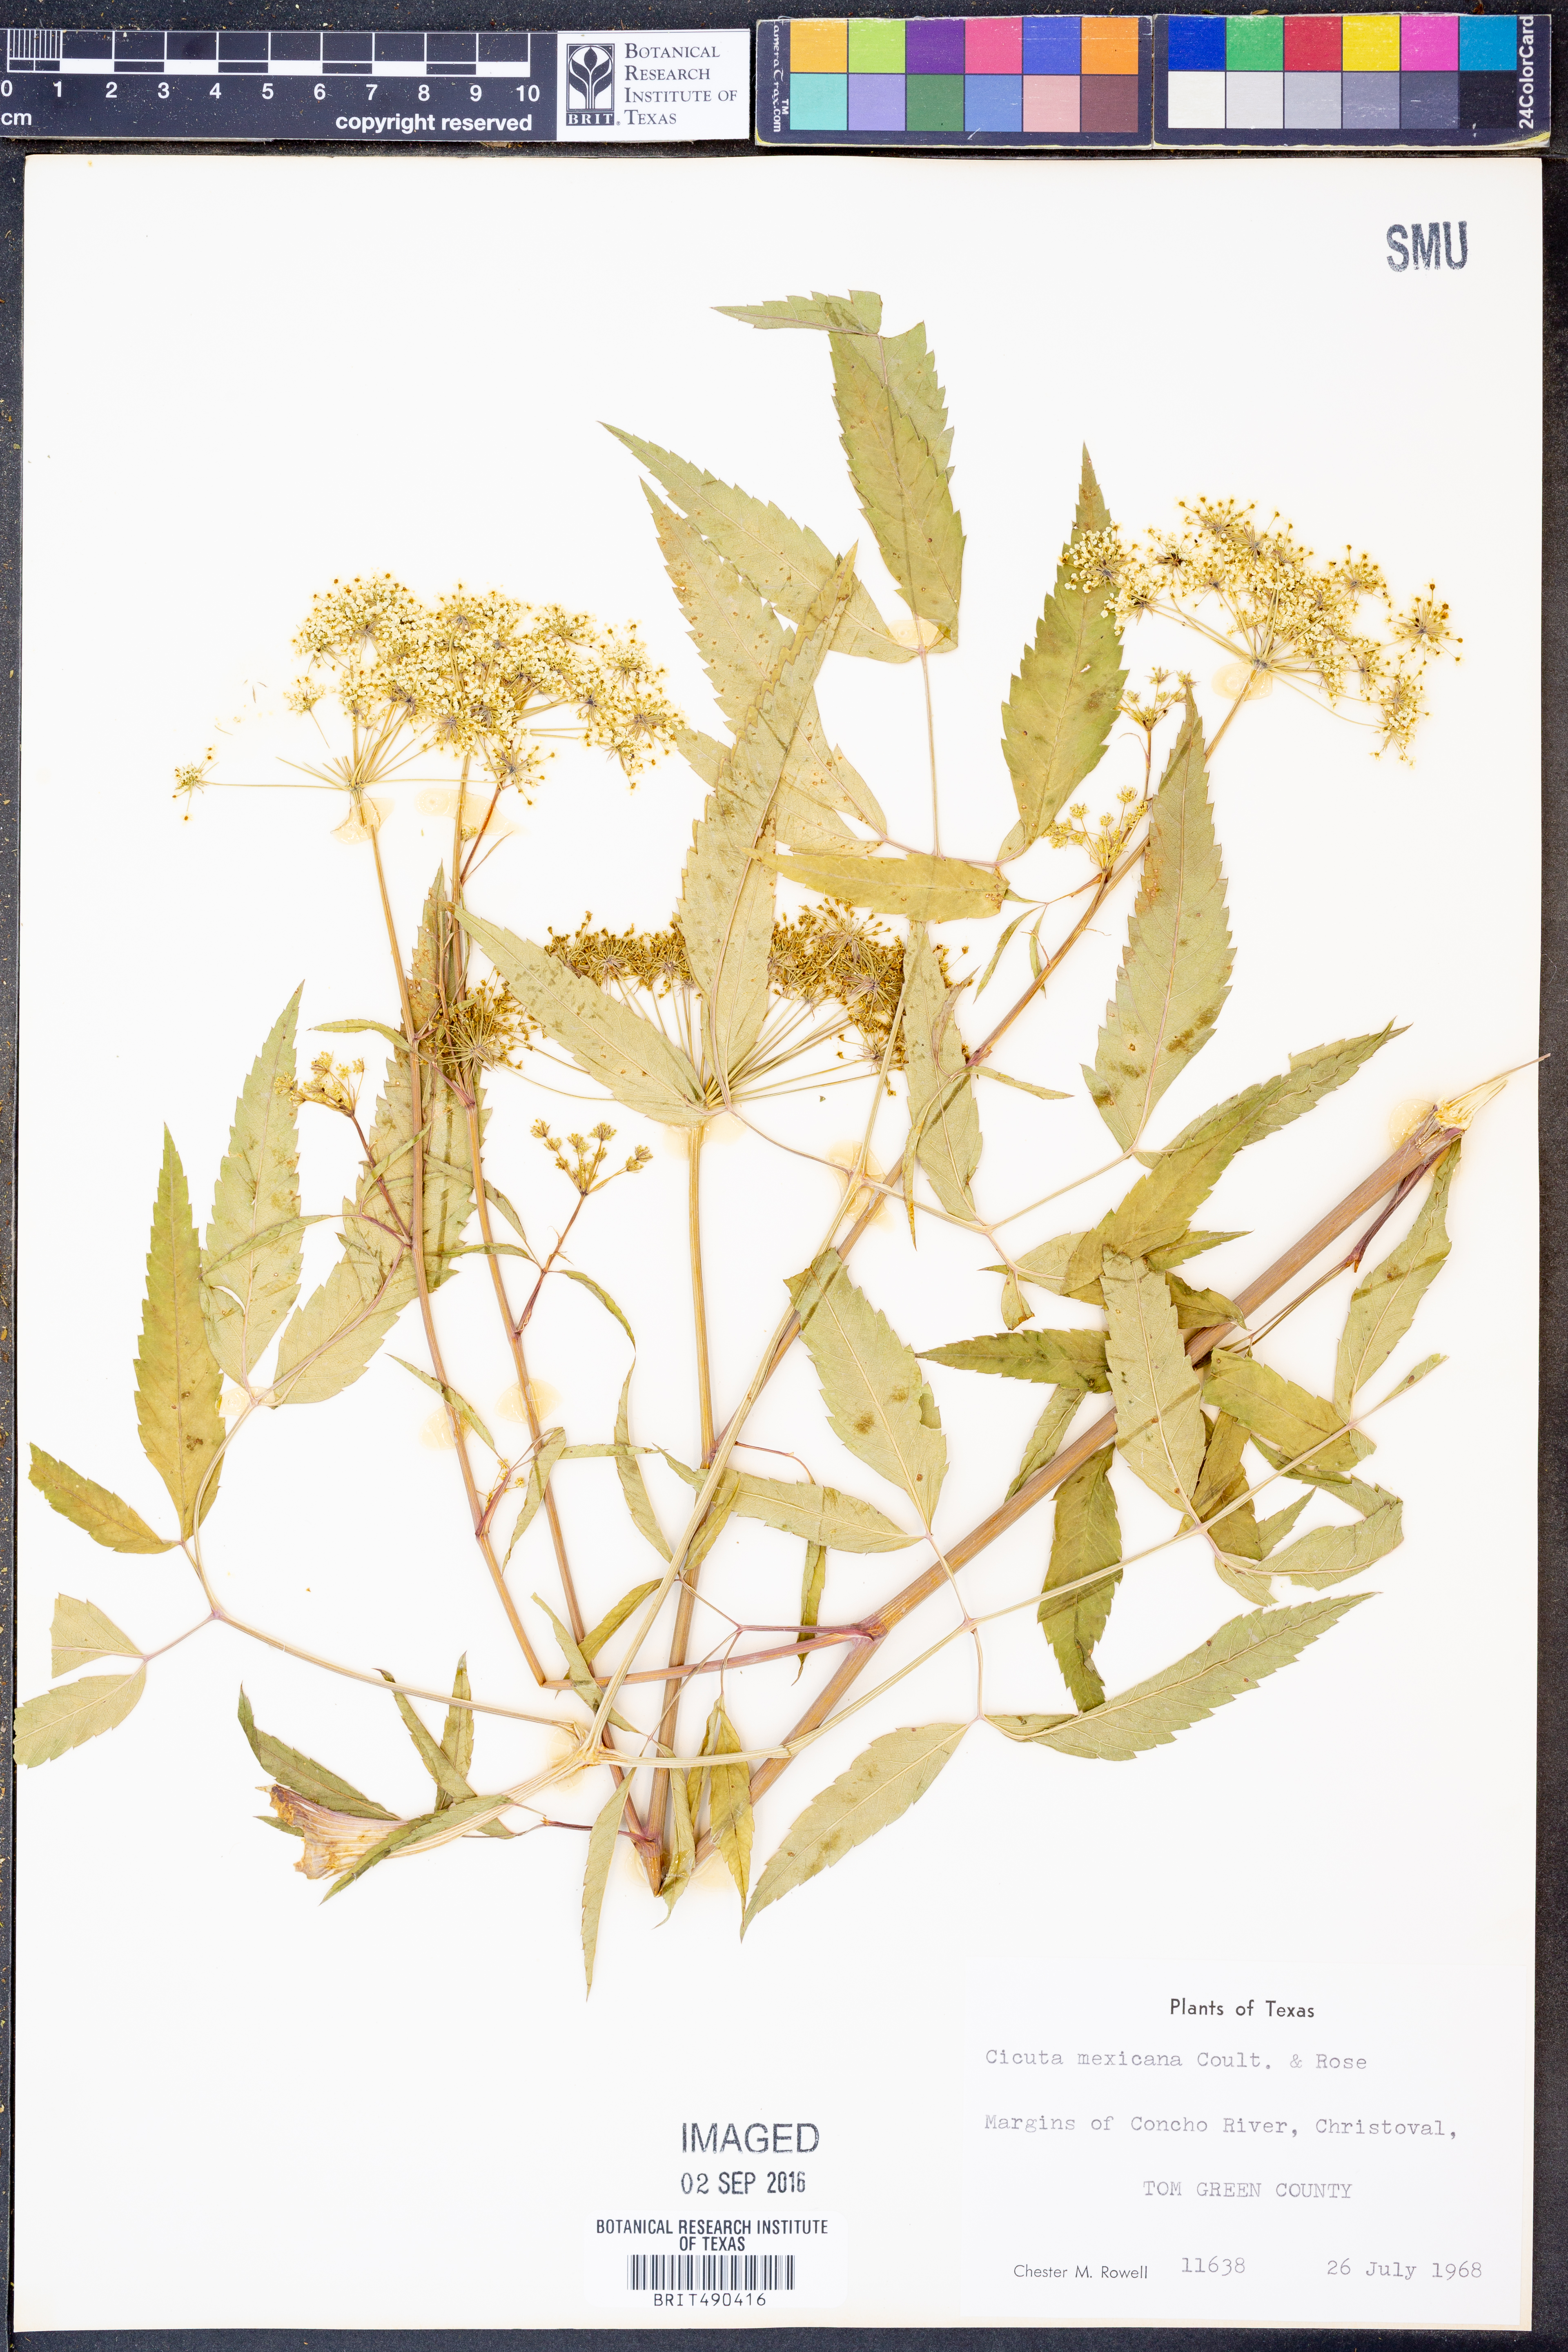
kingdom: Plantae
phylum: Tracheophyta
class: Magnoliopsida
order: Apiales
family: Apiaceae
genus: Cicuta
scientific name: Cicuta douglasii
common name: Western water-hemlock
